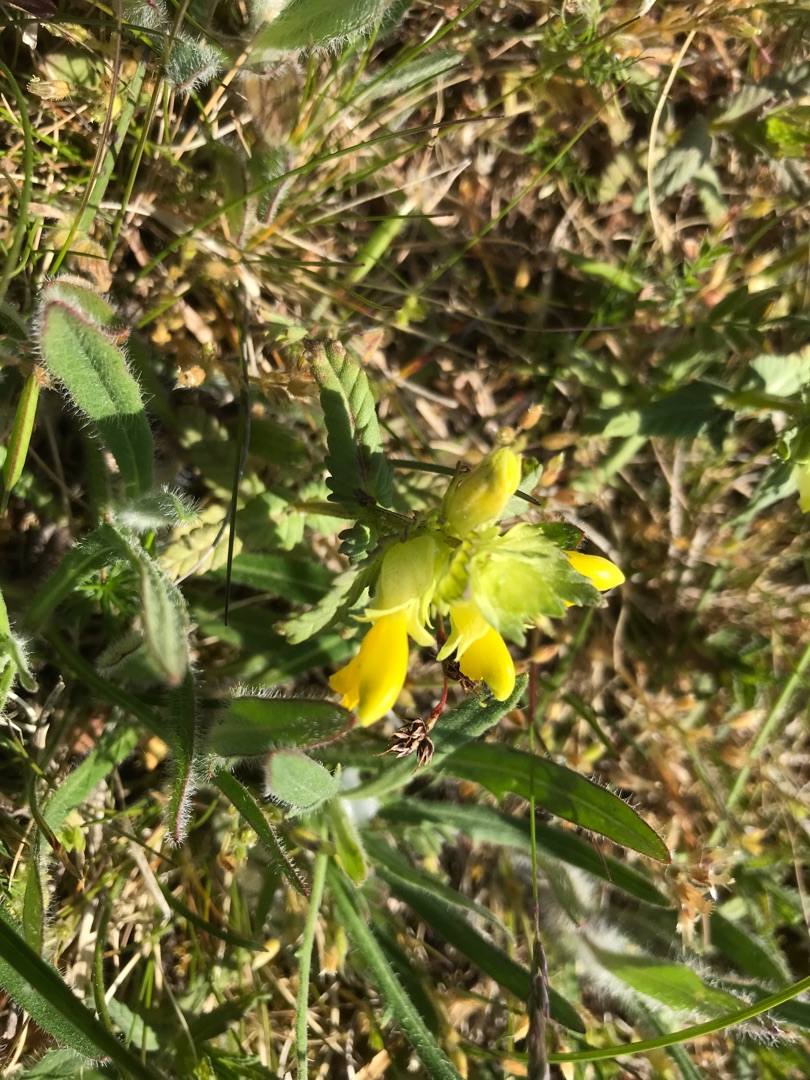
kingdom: Plantae
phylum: Tracheophyta
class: Magnoliopsida
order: Lamiales
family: Orobanchaceae
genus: Rhinanthus
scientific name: Rhinanthus
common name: Stor skjaller
